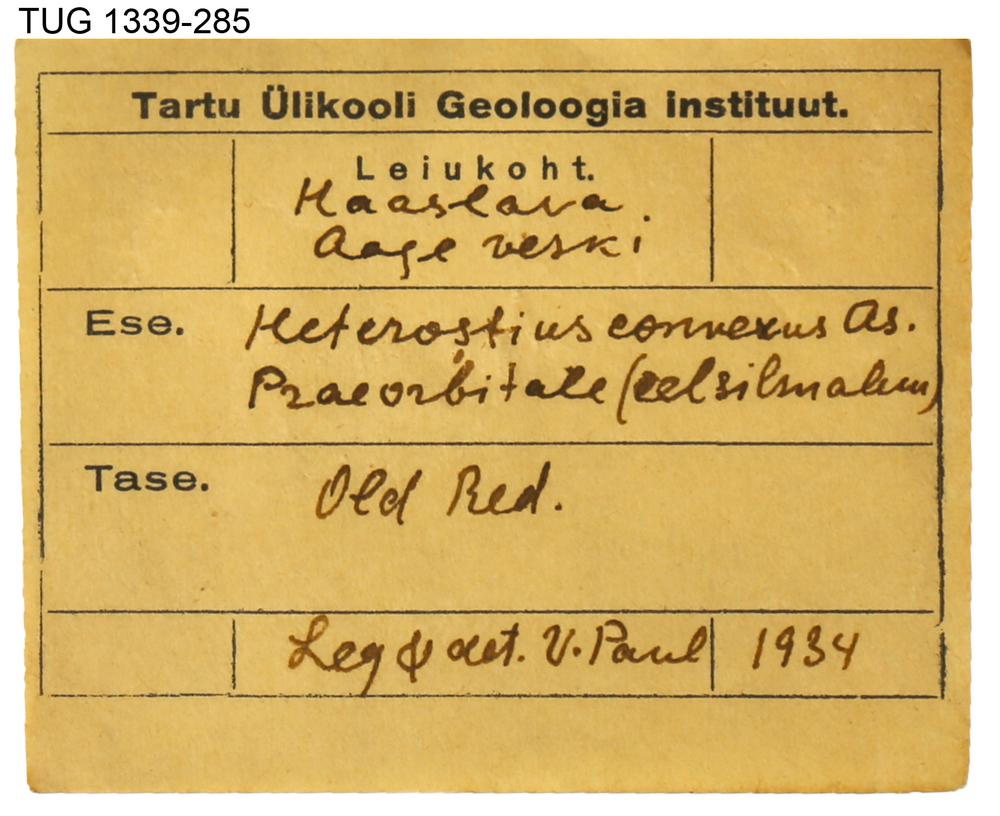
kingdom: Animalia
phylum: Chordata
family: Heterosteidae
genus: Heterosteus
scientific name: Heterosteus convexus
